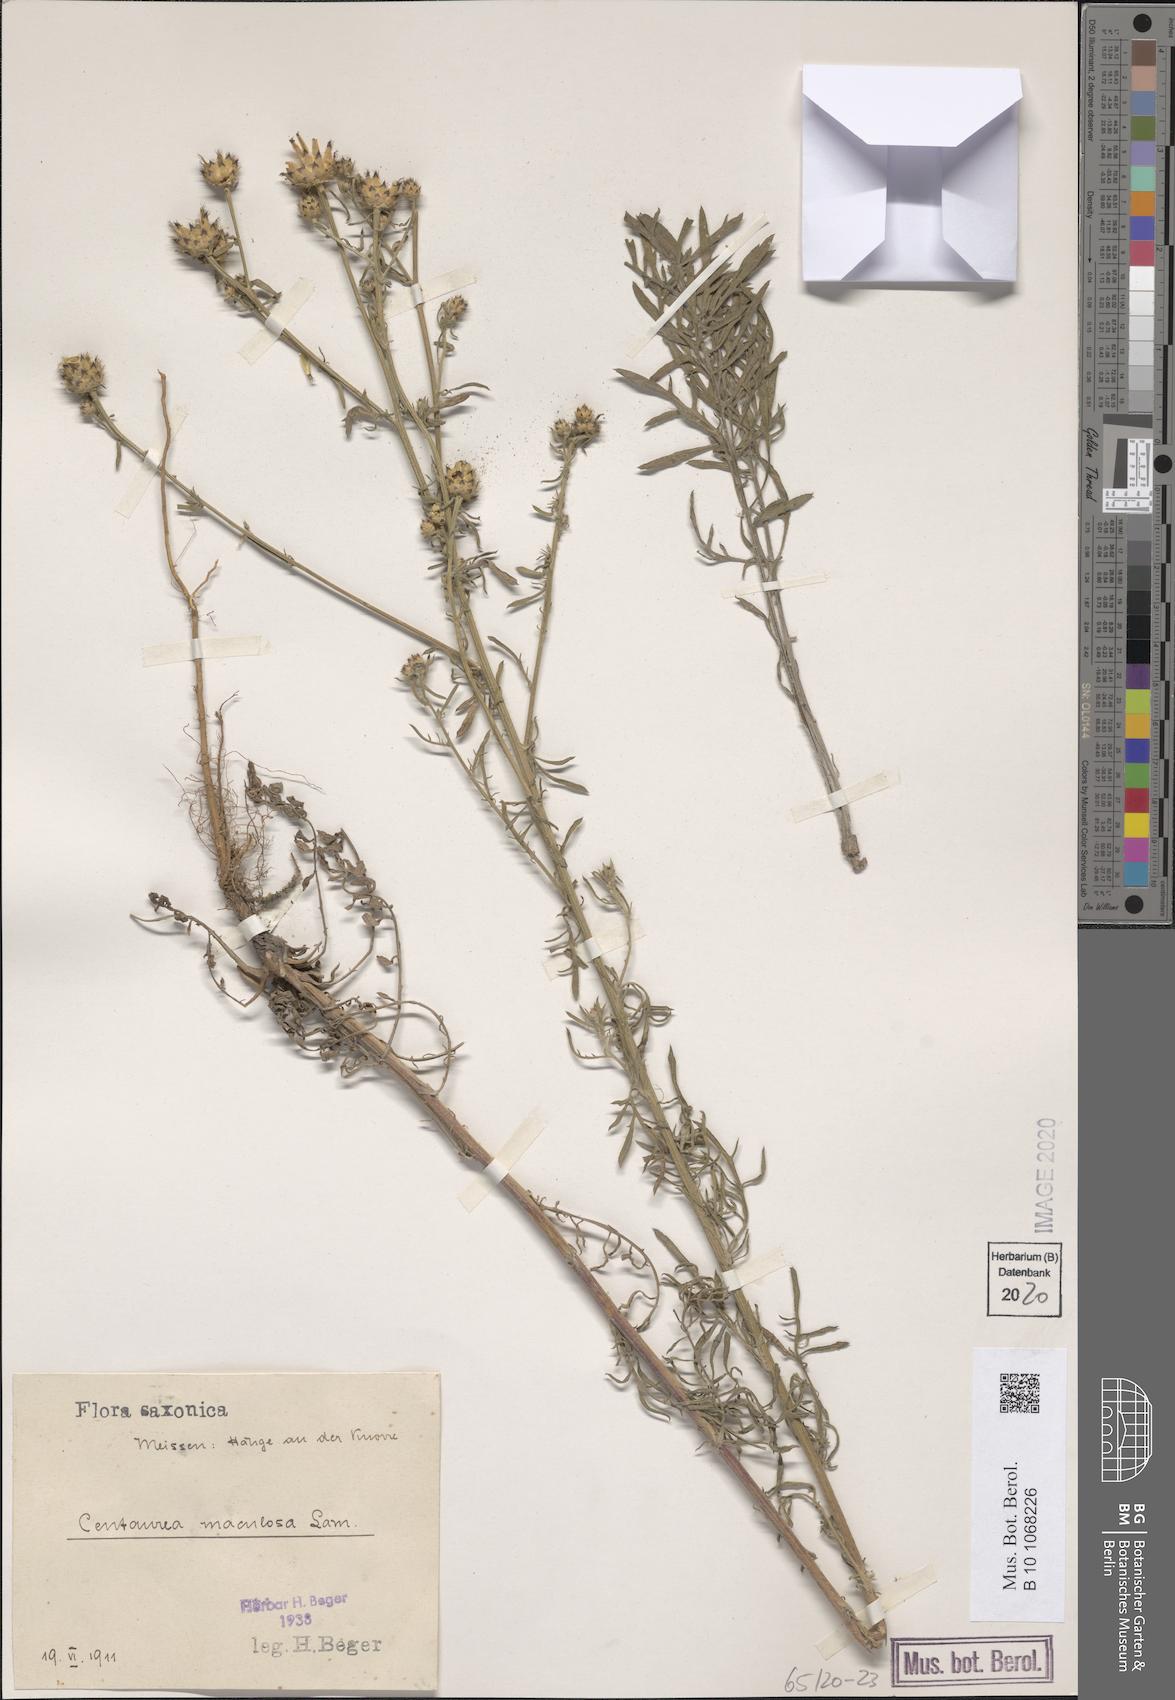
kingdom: Plantae
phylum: Tracheophyta
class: Magnoliopsida
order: Asterales
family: Asteraceae
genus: Centaurea
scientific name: Centaurea stoebe
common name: Spotted knapweed
